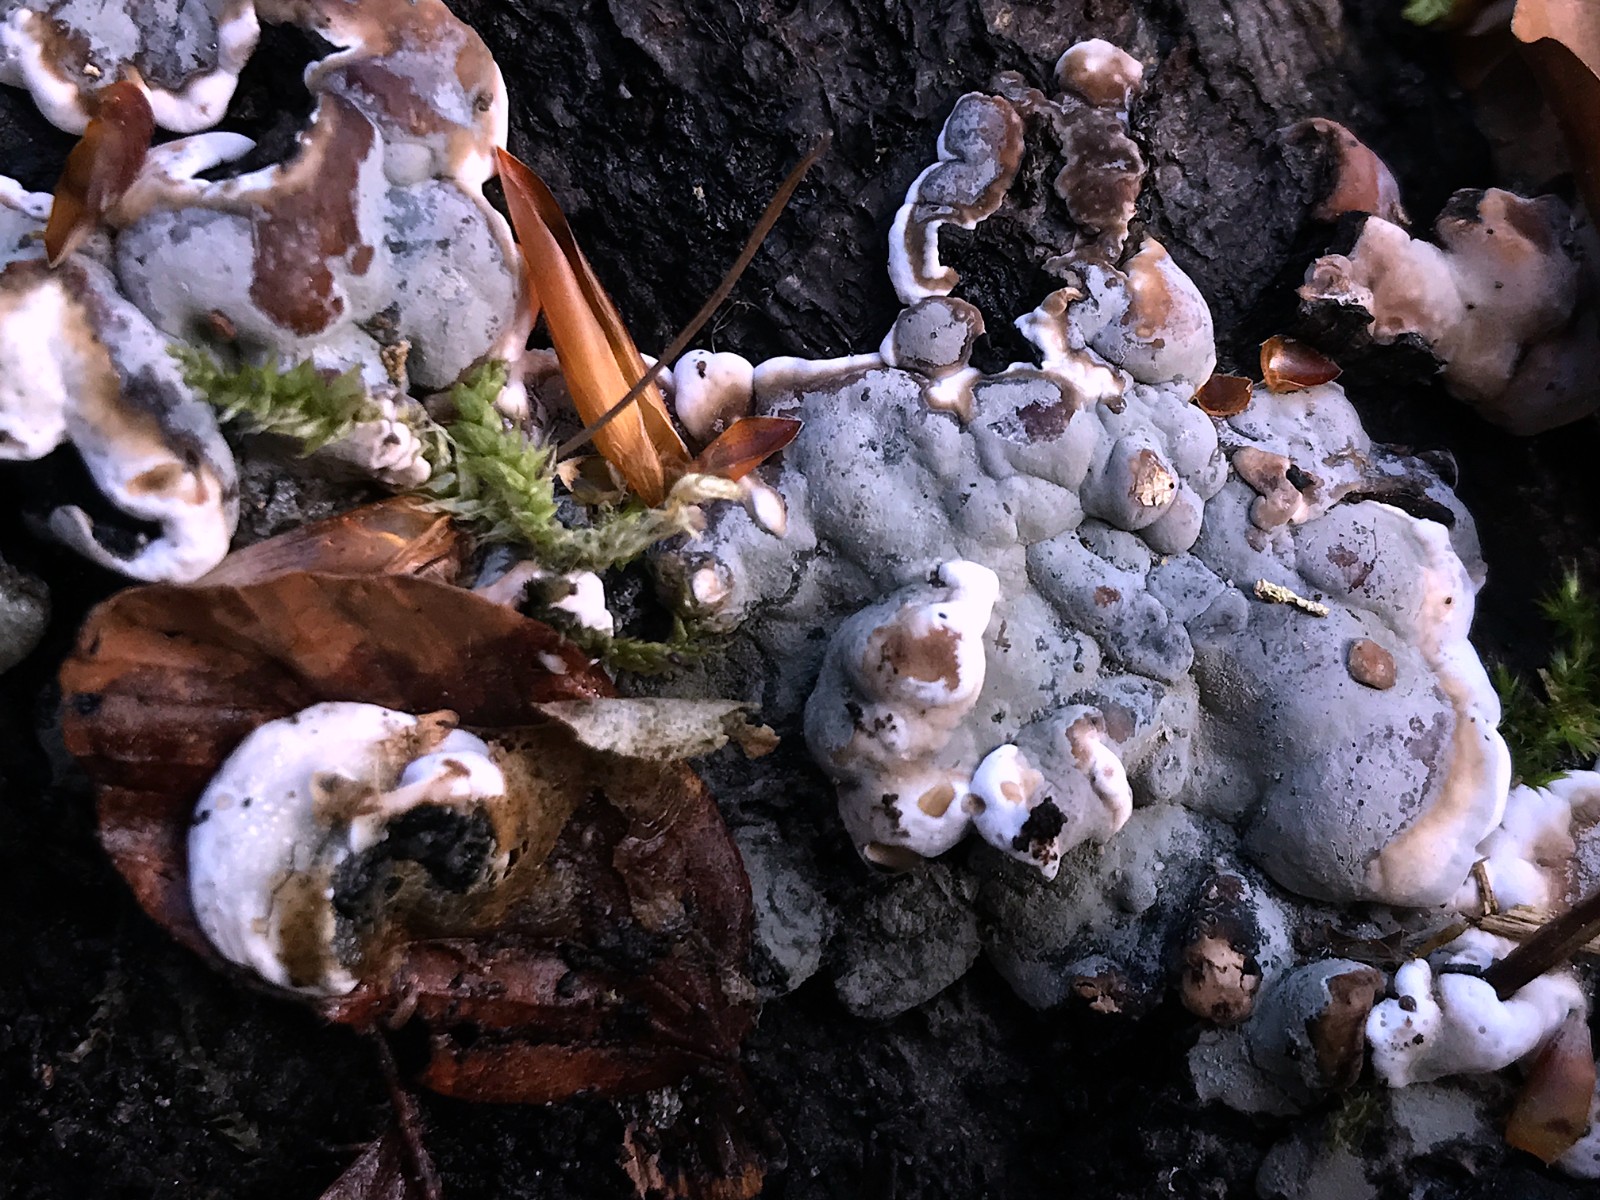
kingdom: Fungi
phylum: Ascomycota
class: Sordariomycetes
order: Xylariales
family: Xylariaceae
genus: Kretzschmaria
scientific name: Kretzschmaria deusta
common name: stor kulsvamp
